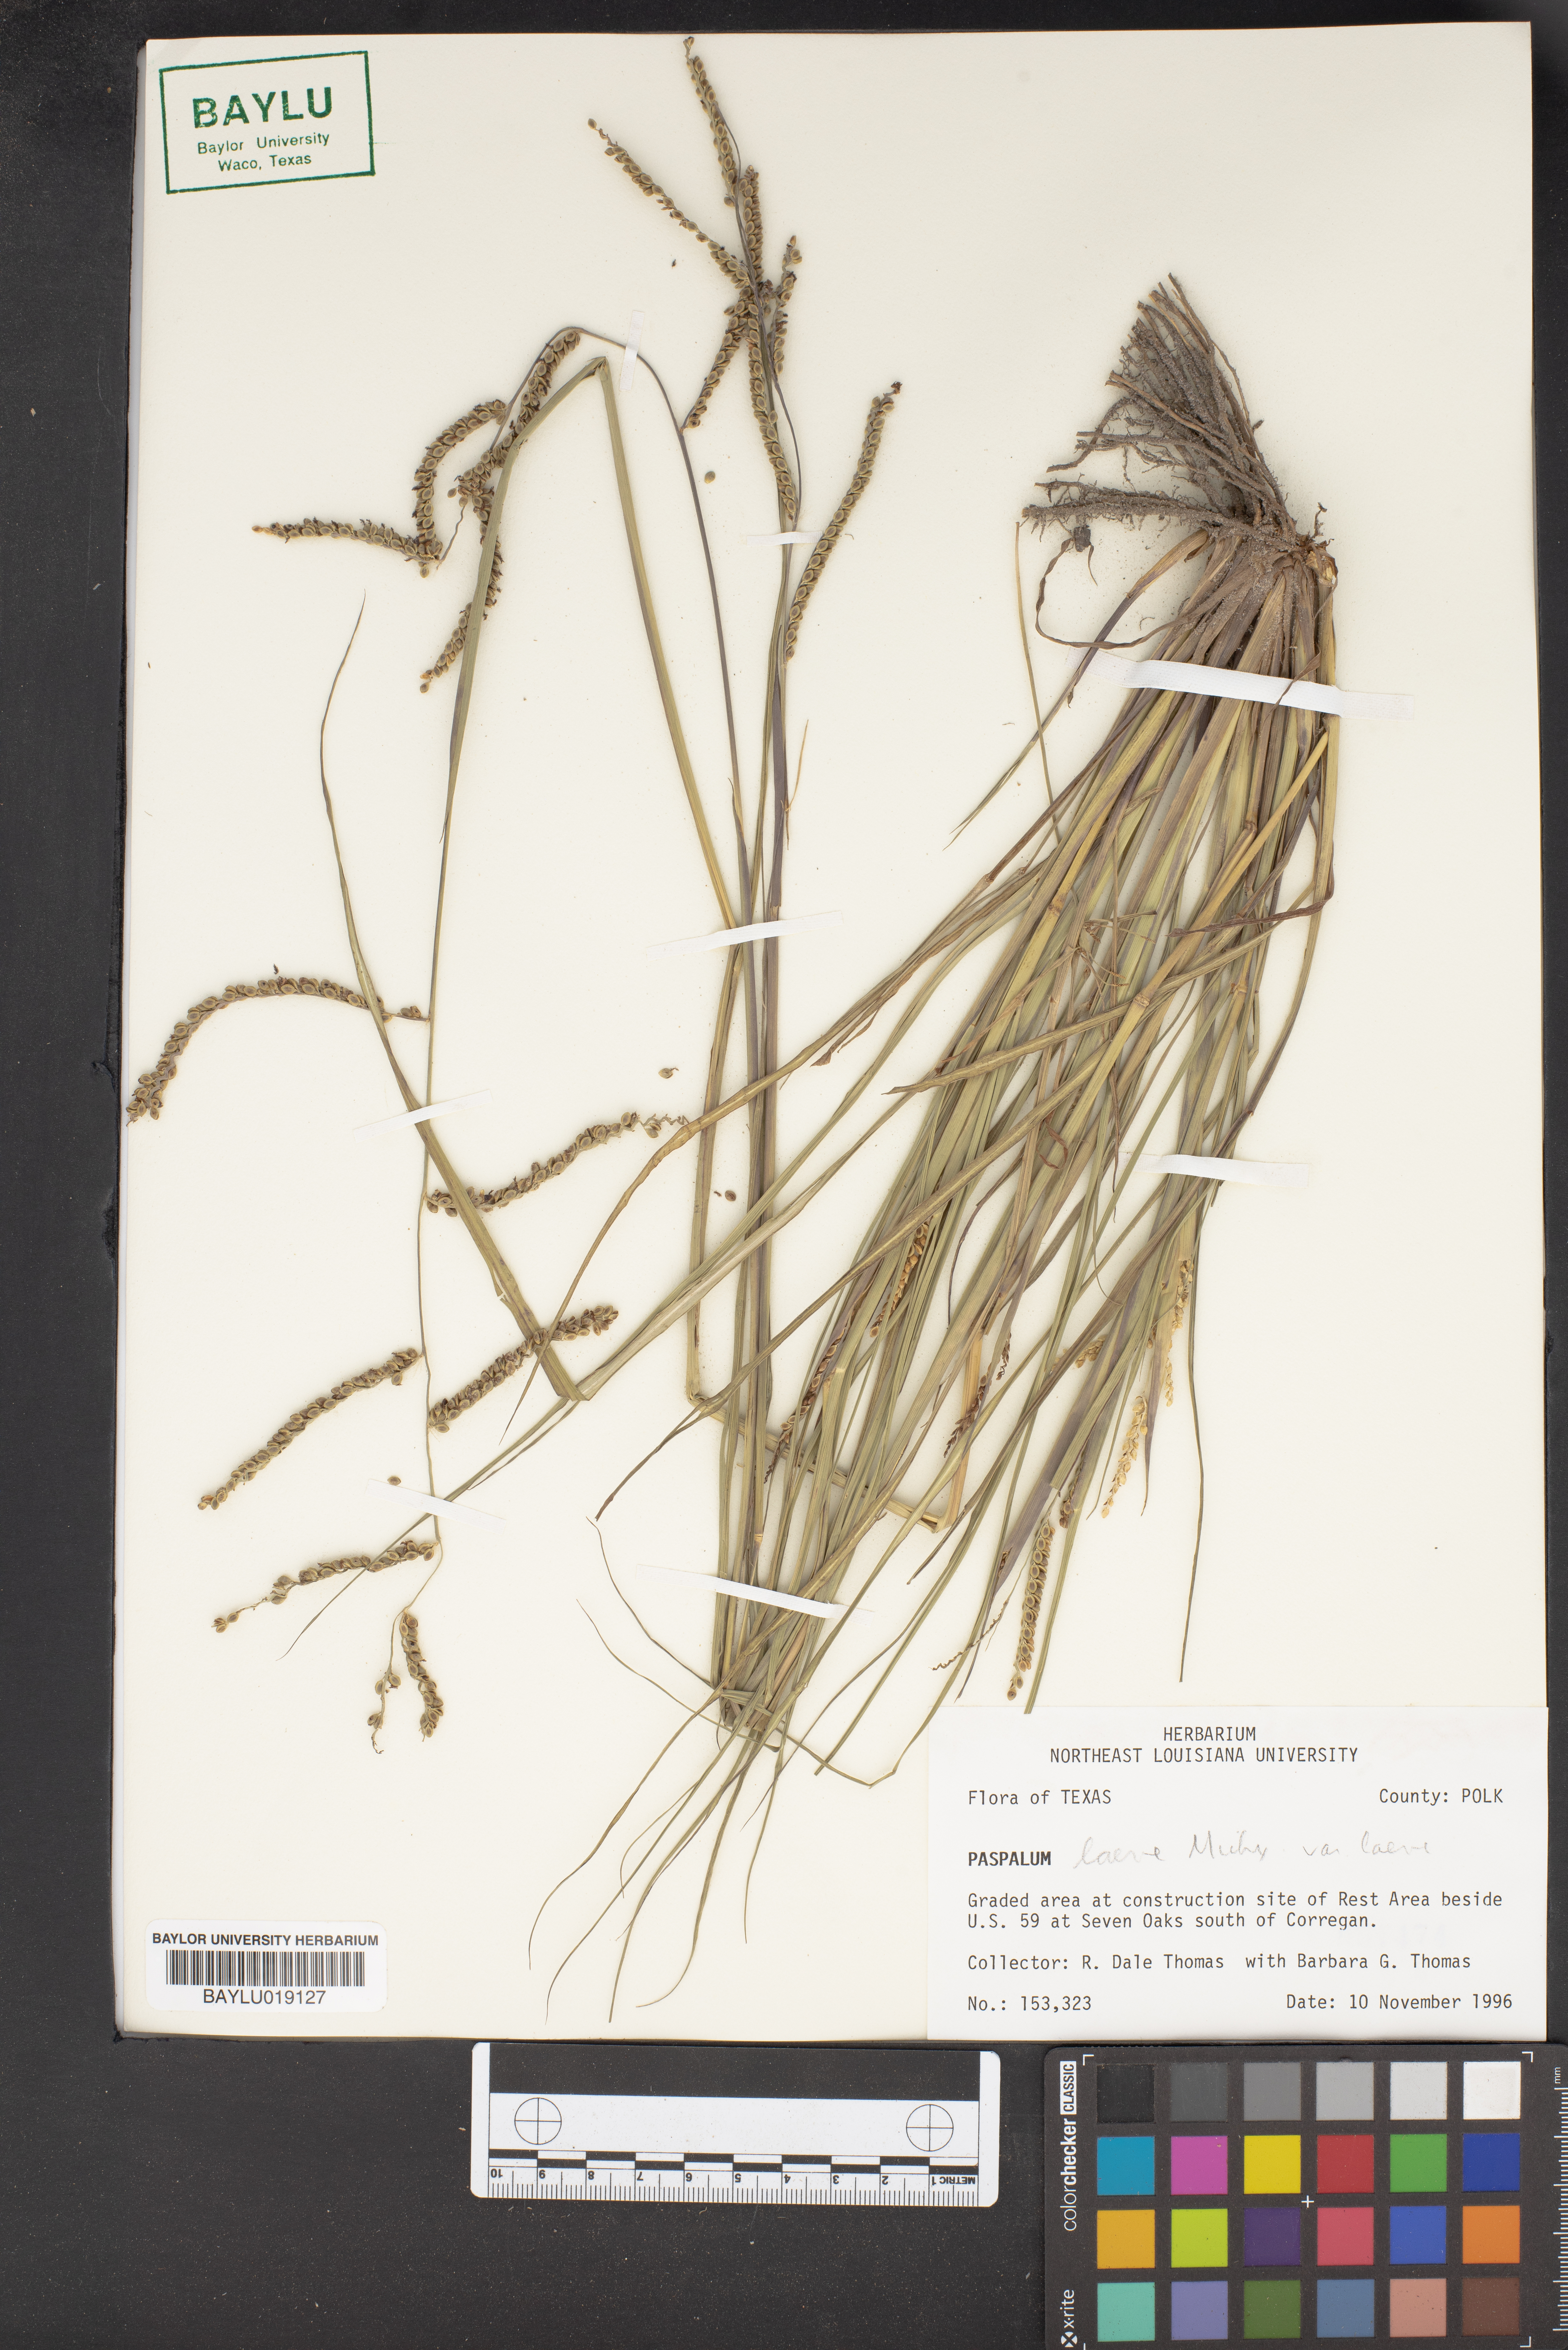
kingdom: Plantae
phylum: Tracheophyta
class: Liliopsida
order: Poales
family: Poaceae
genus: Paspalum
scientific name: Paspalum laeve
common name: Field paspalum
